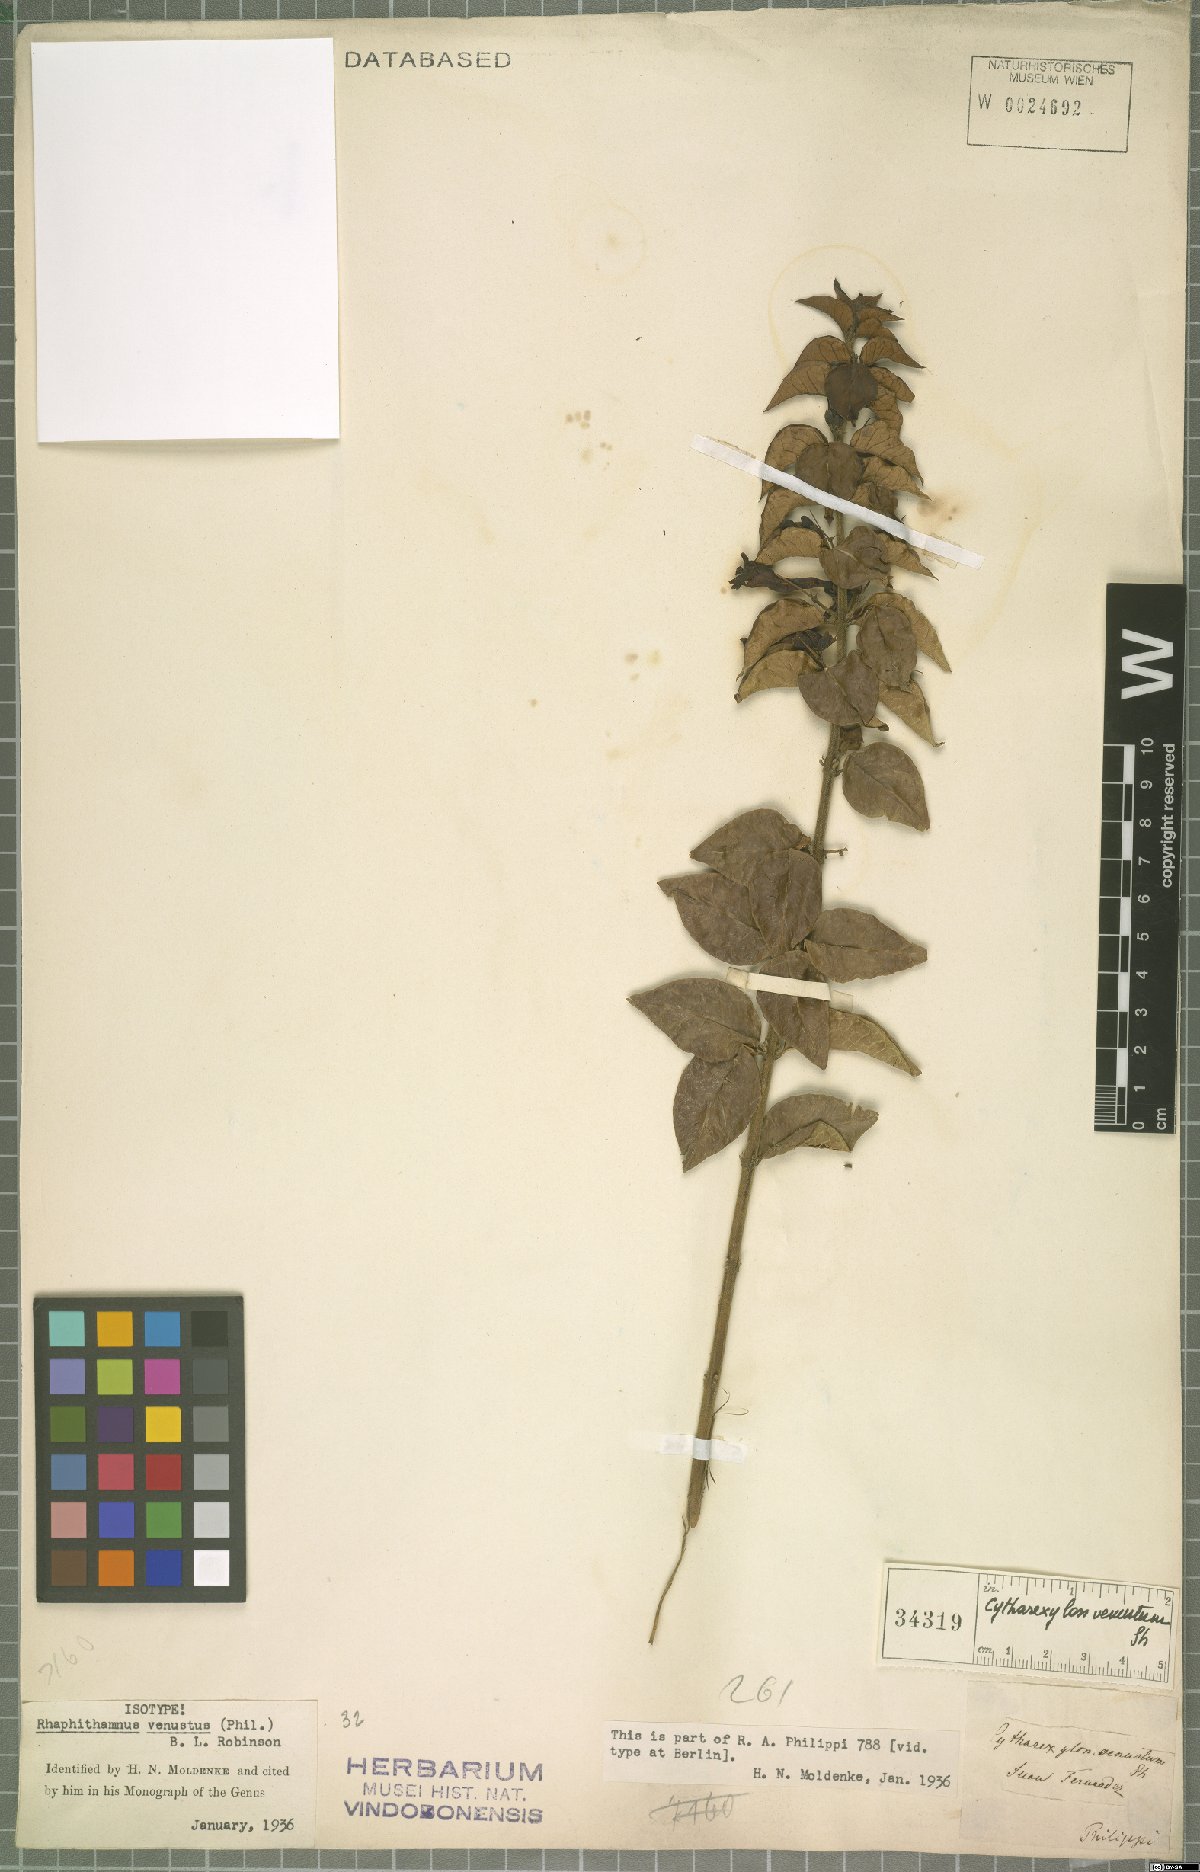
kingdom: Plantae
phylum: Tracheophyta
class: Magnoliopsida
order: Lamiales
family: Verbenaceae
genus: Rhaphithamnus
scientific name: Rhaphithamnus venustus
